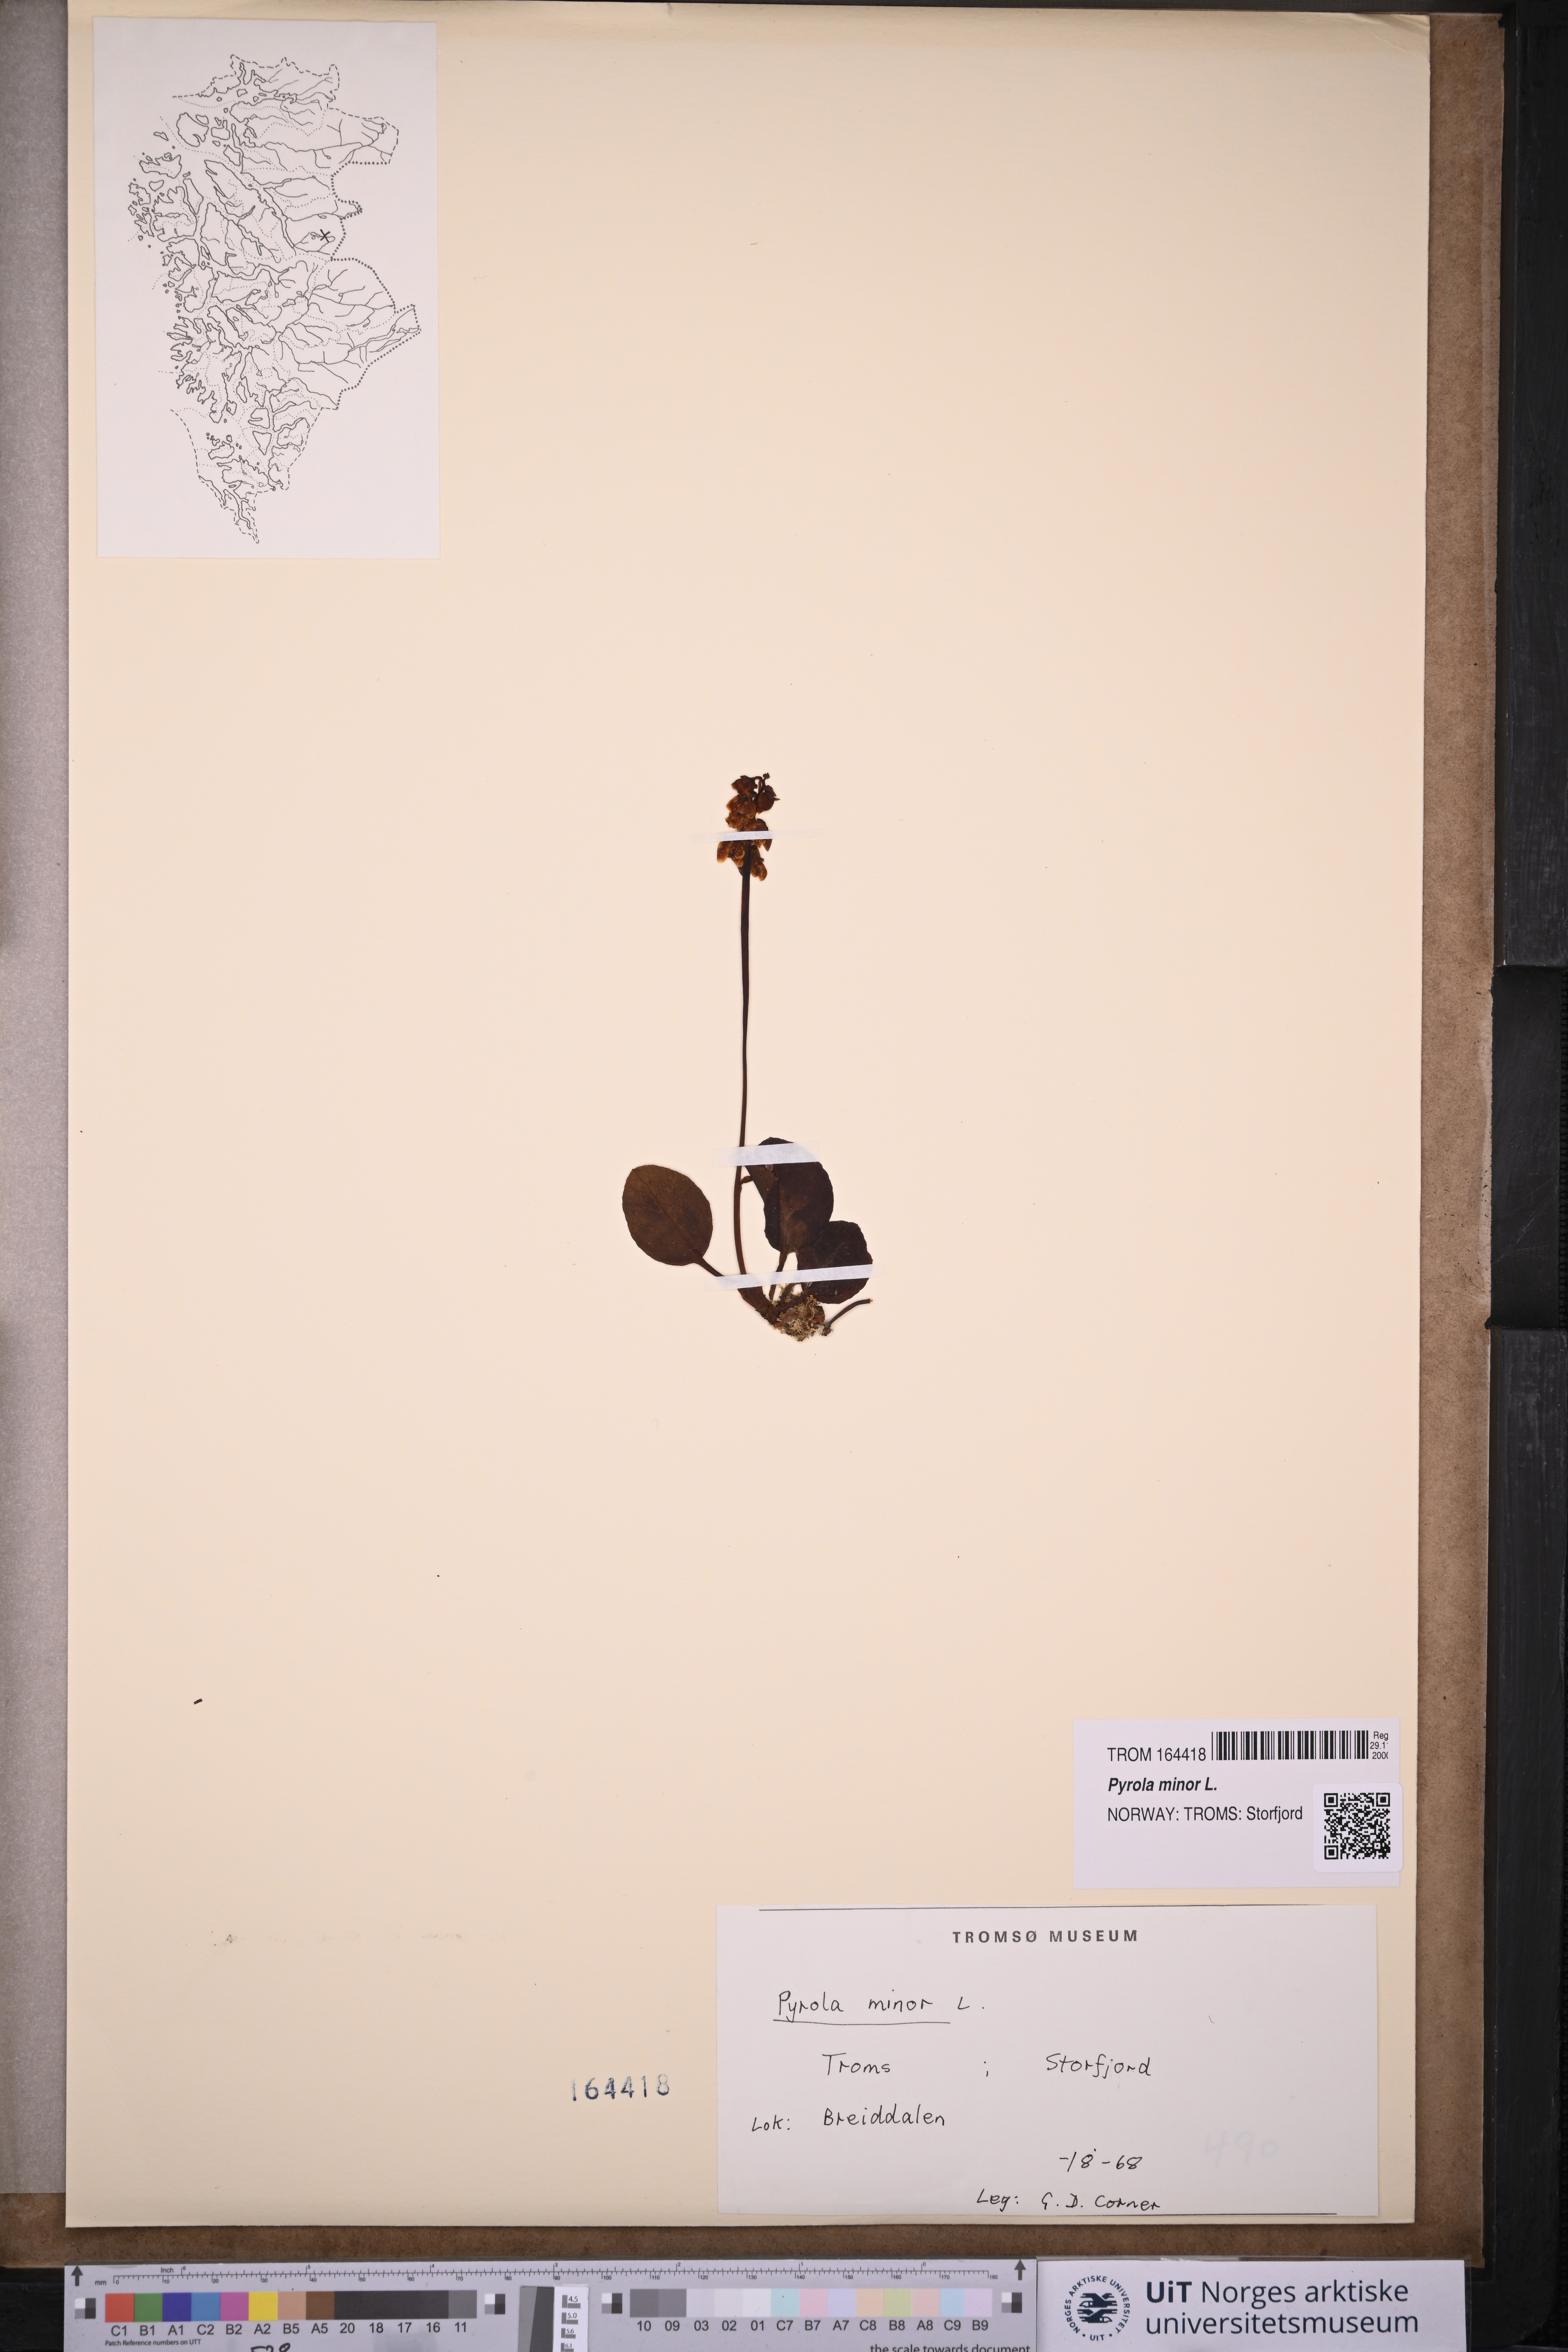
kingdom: Plantae
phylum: Tracheophyta
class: Magnoliopsida
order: Ericales
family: Ericaceae
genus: Pyrola
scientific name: Pyrola minor
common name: Common wintergreen
